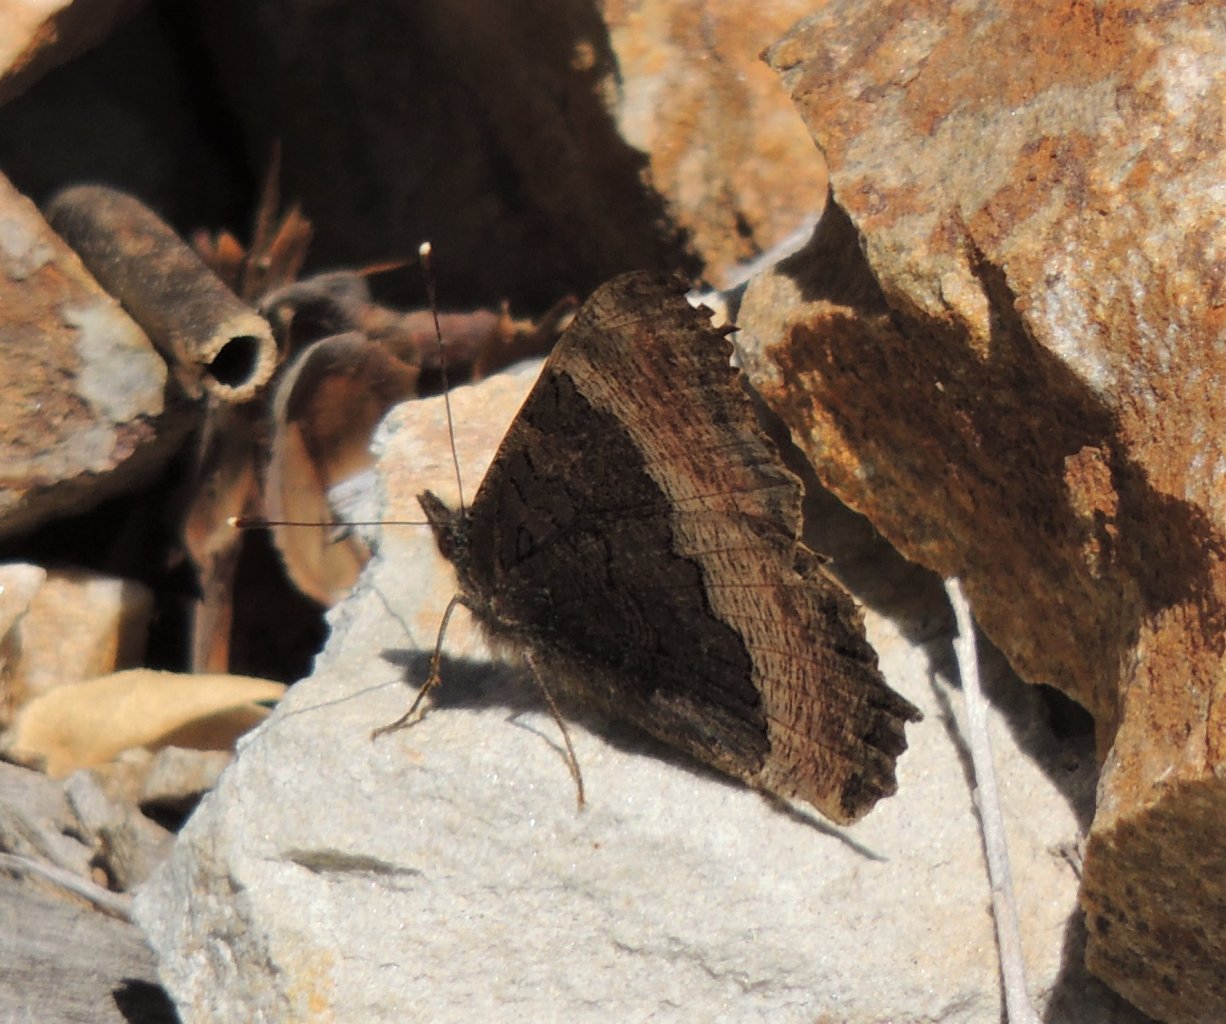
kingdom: Animalia
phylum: Arthropoda
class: Insecta
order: Lepidoptera
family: Nymphalidae
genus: Aglais
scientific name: Aglais milberti
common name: Milbert's Tortoiseshell
